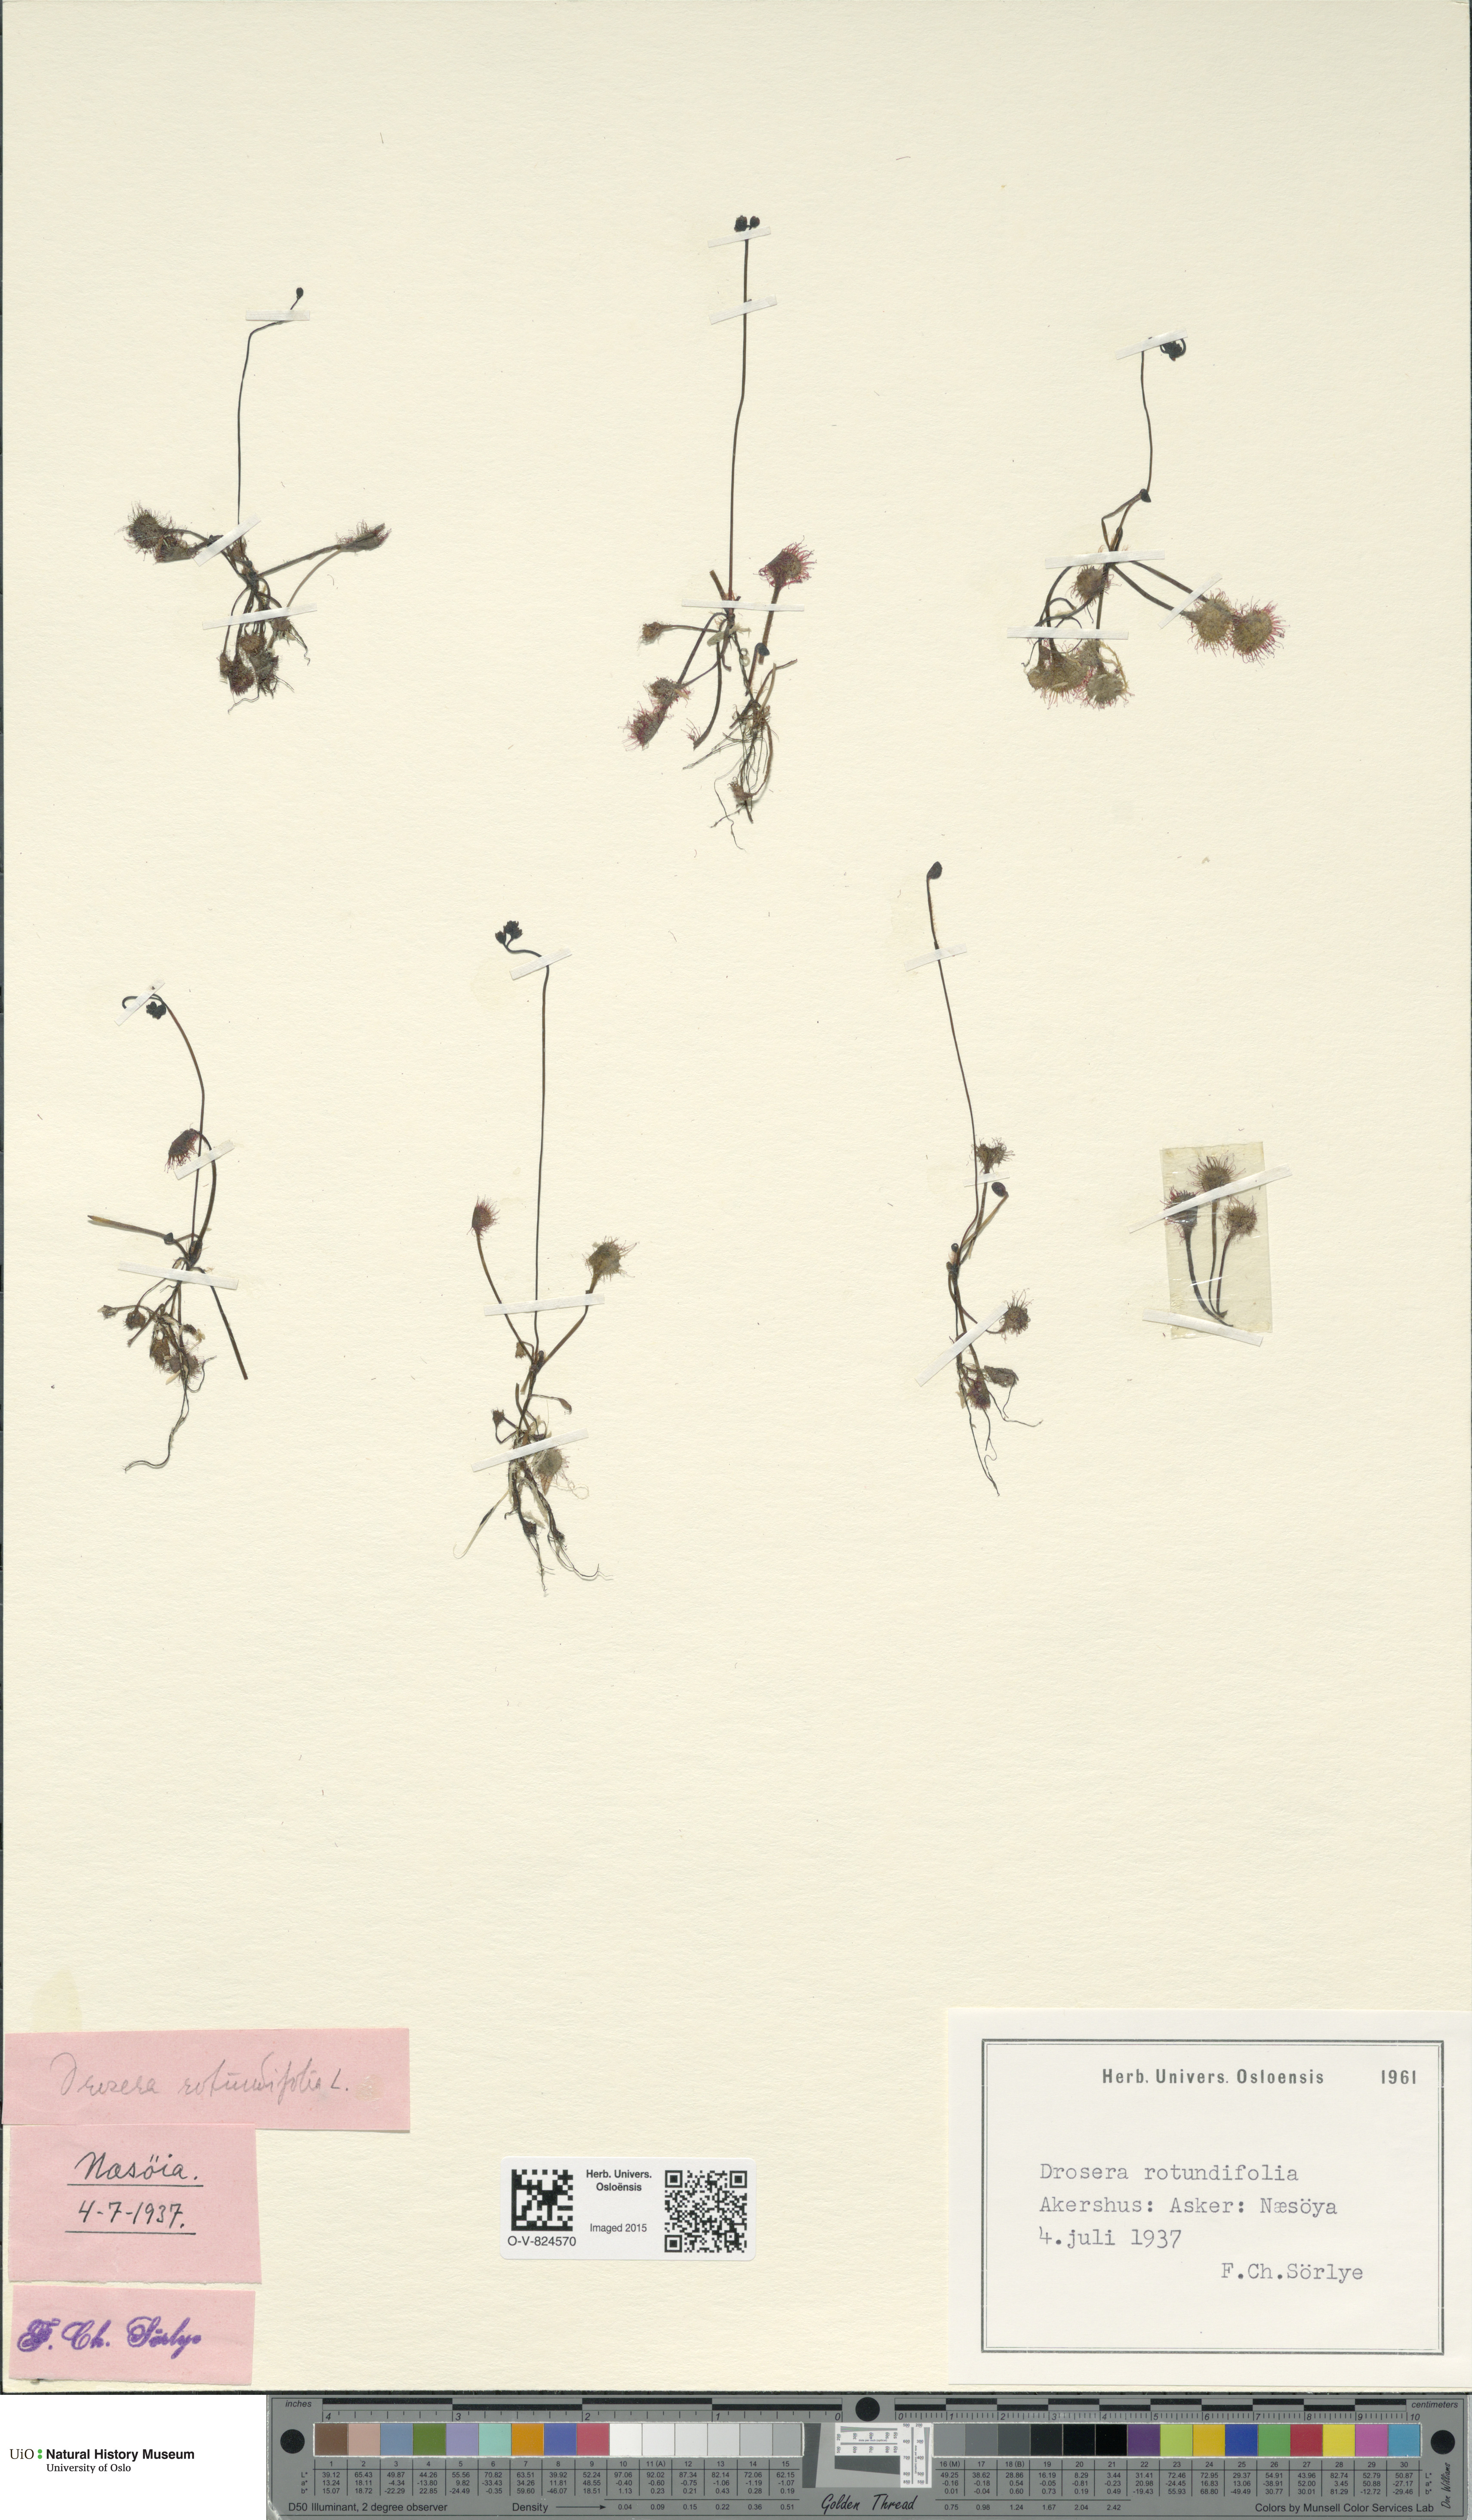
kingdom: Plantae
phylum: Tracheophyta
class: Magnoliopsida
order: Caryophyllales
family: Droseraceae
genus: Drosera
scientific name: Drosera rotundifolia
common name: Round-leaved sundew
